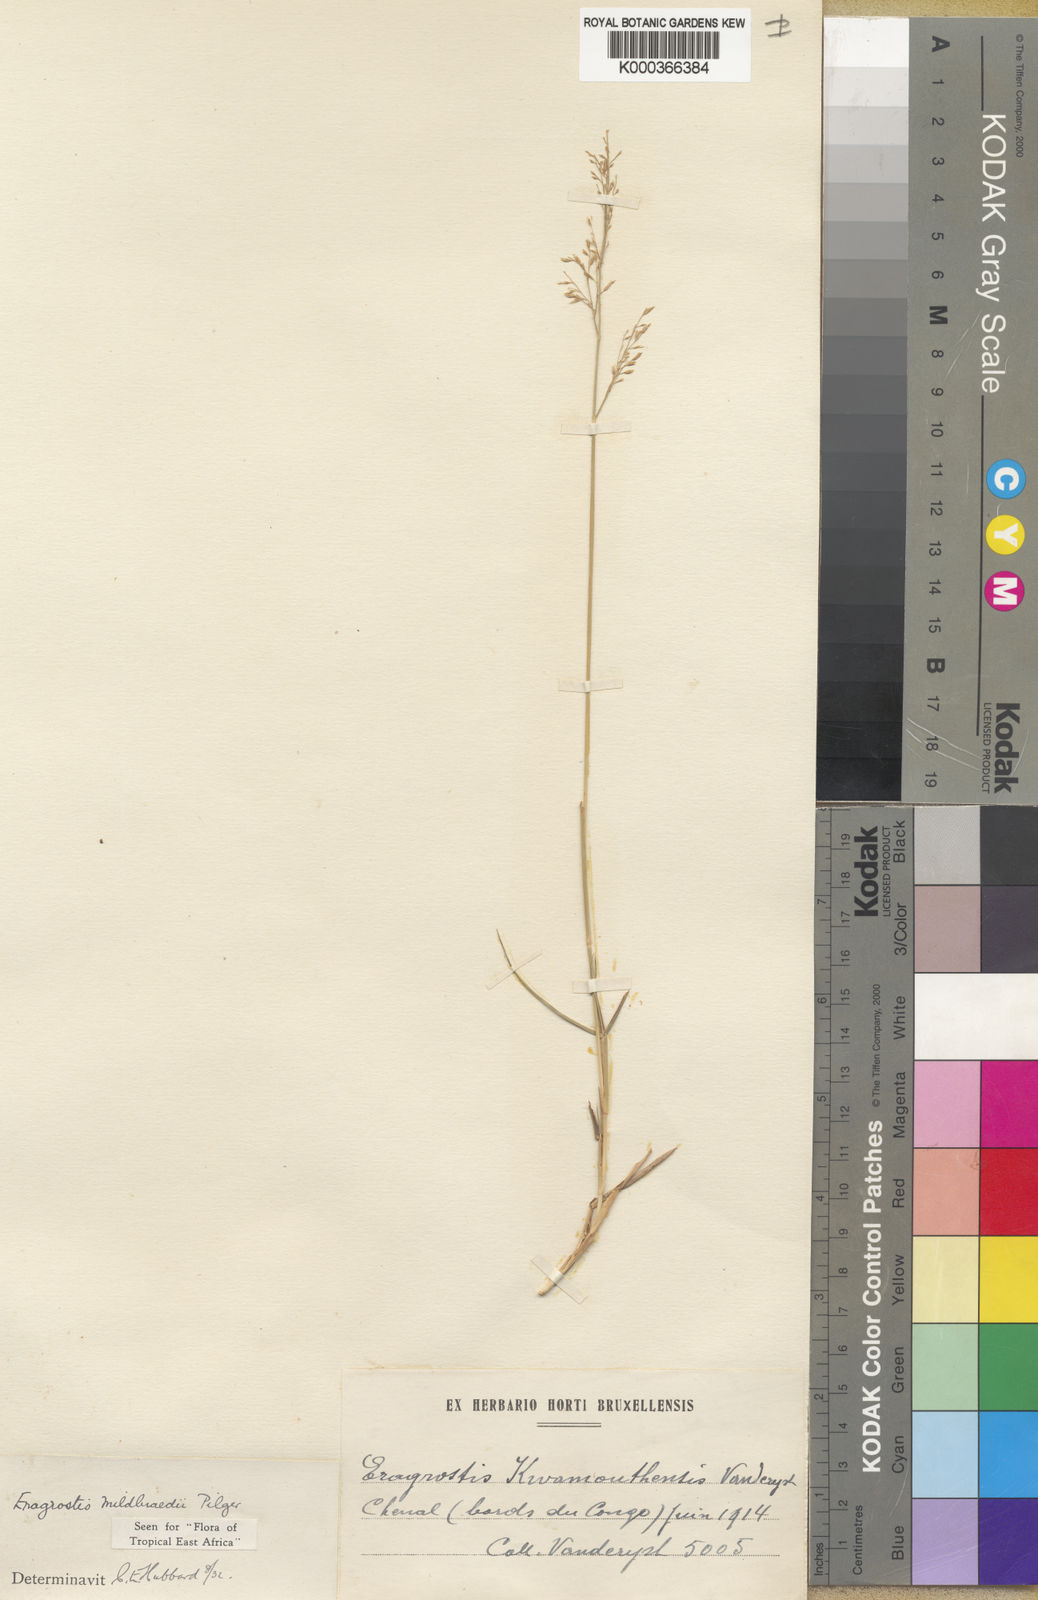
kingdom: Plantae
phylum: Tracheophyta
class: Liliopsida
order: Poales
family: Poaceae
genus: Eragrostis
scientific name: Eragrostis mildbraedii
